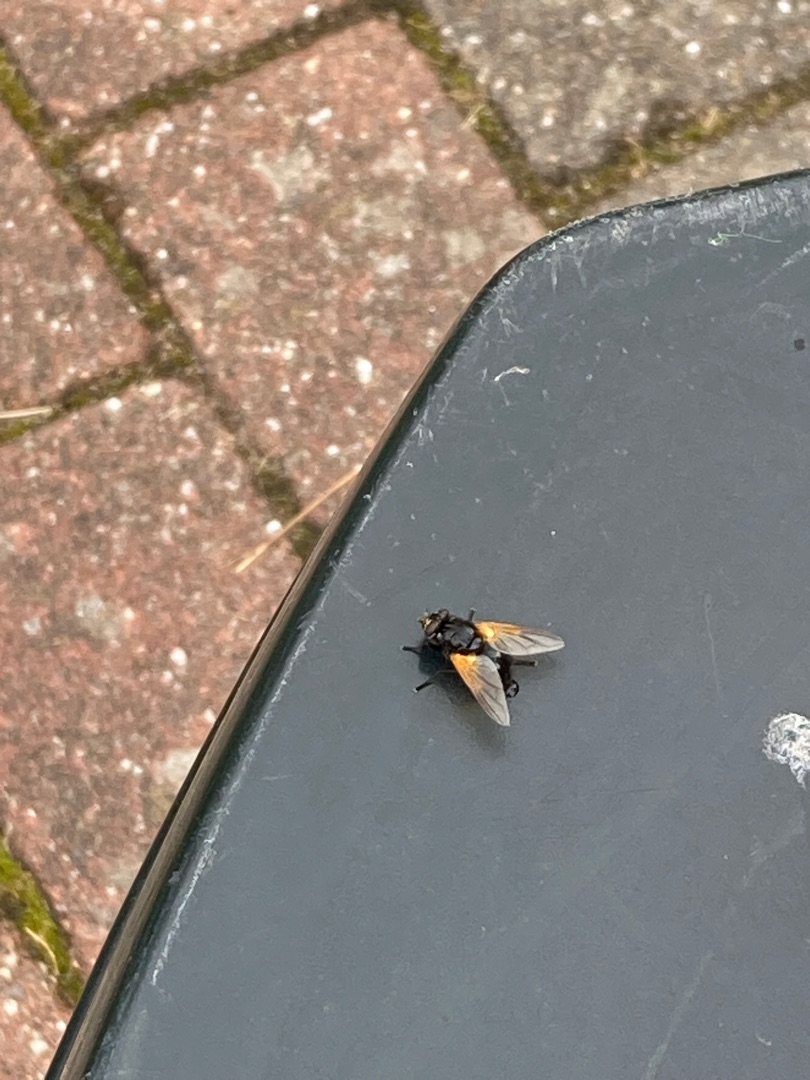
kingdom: Animalia
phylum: Arthropoda
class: Insecta
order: Diptera
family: Muscidae
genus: Mesembrina
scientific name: Mesembrina meridiana
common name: Gulvinget flue
